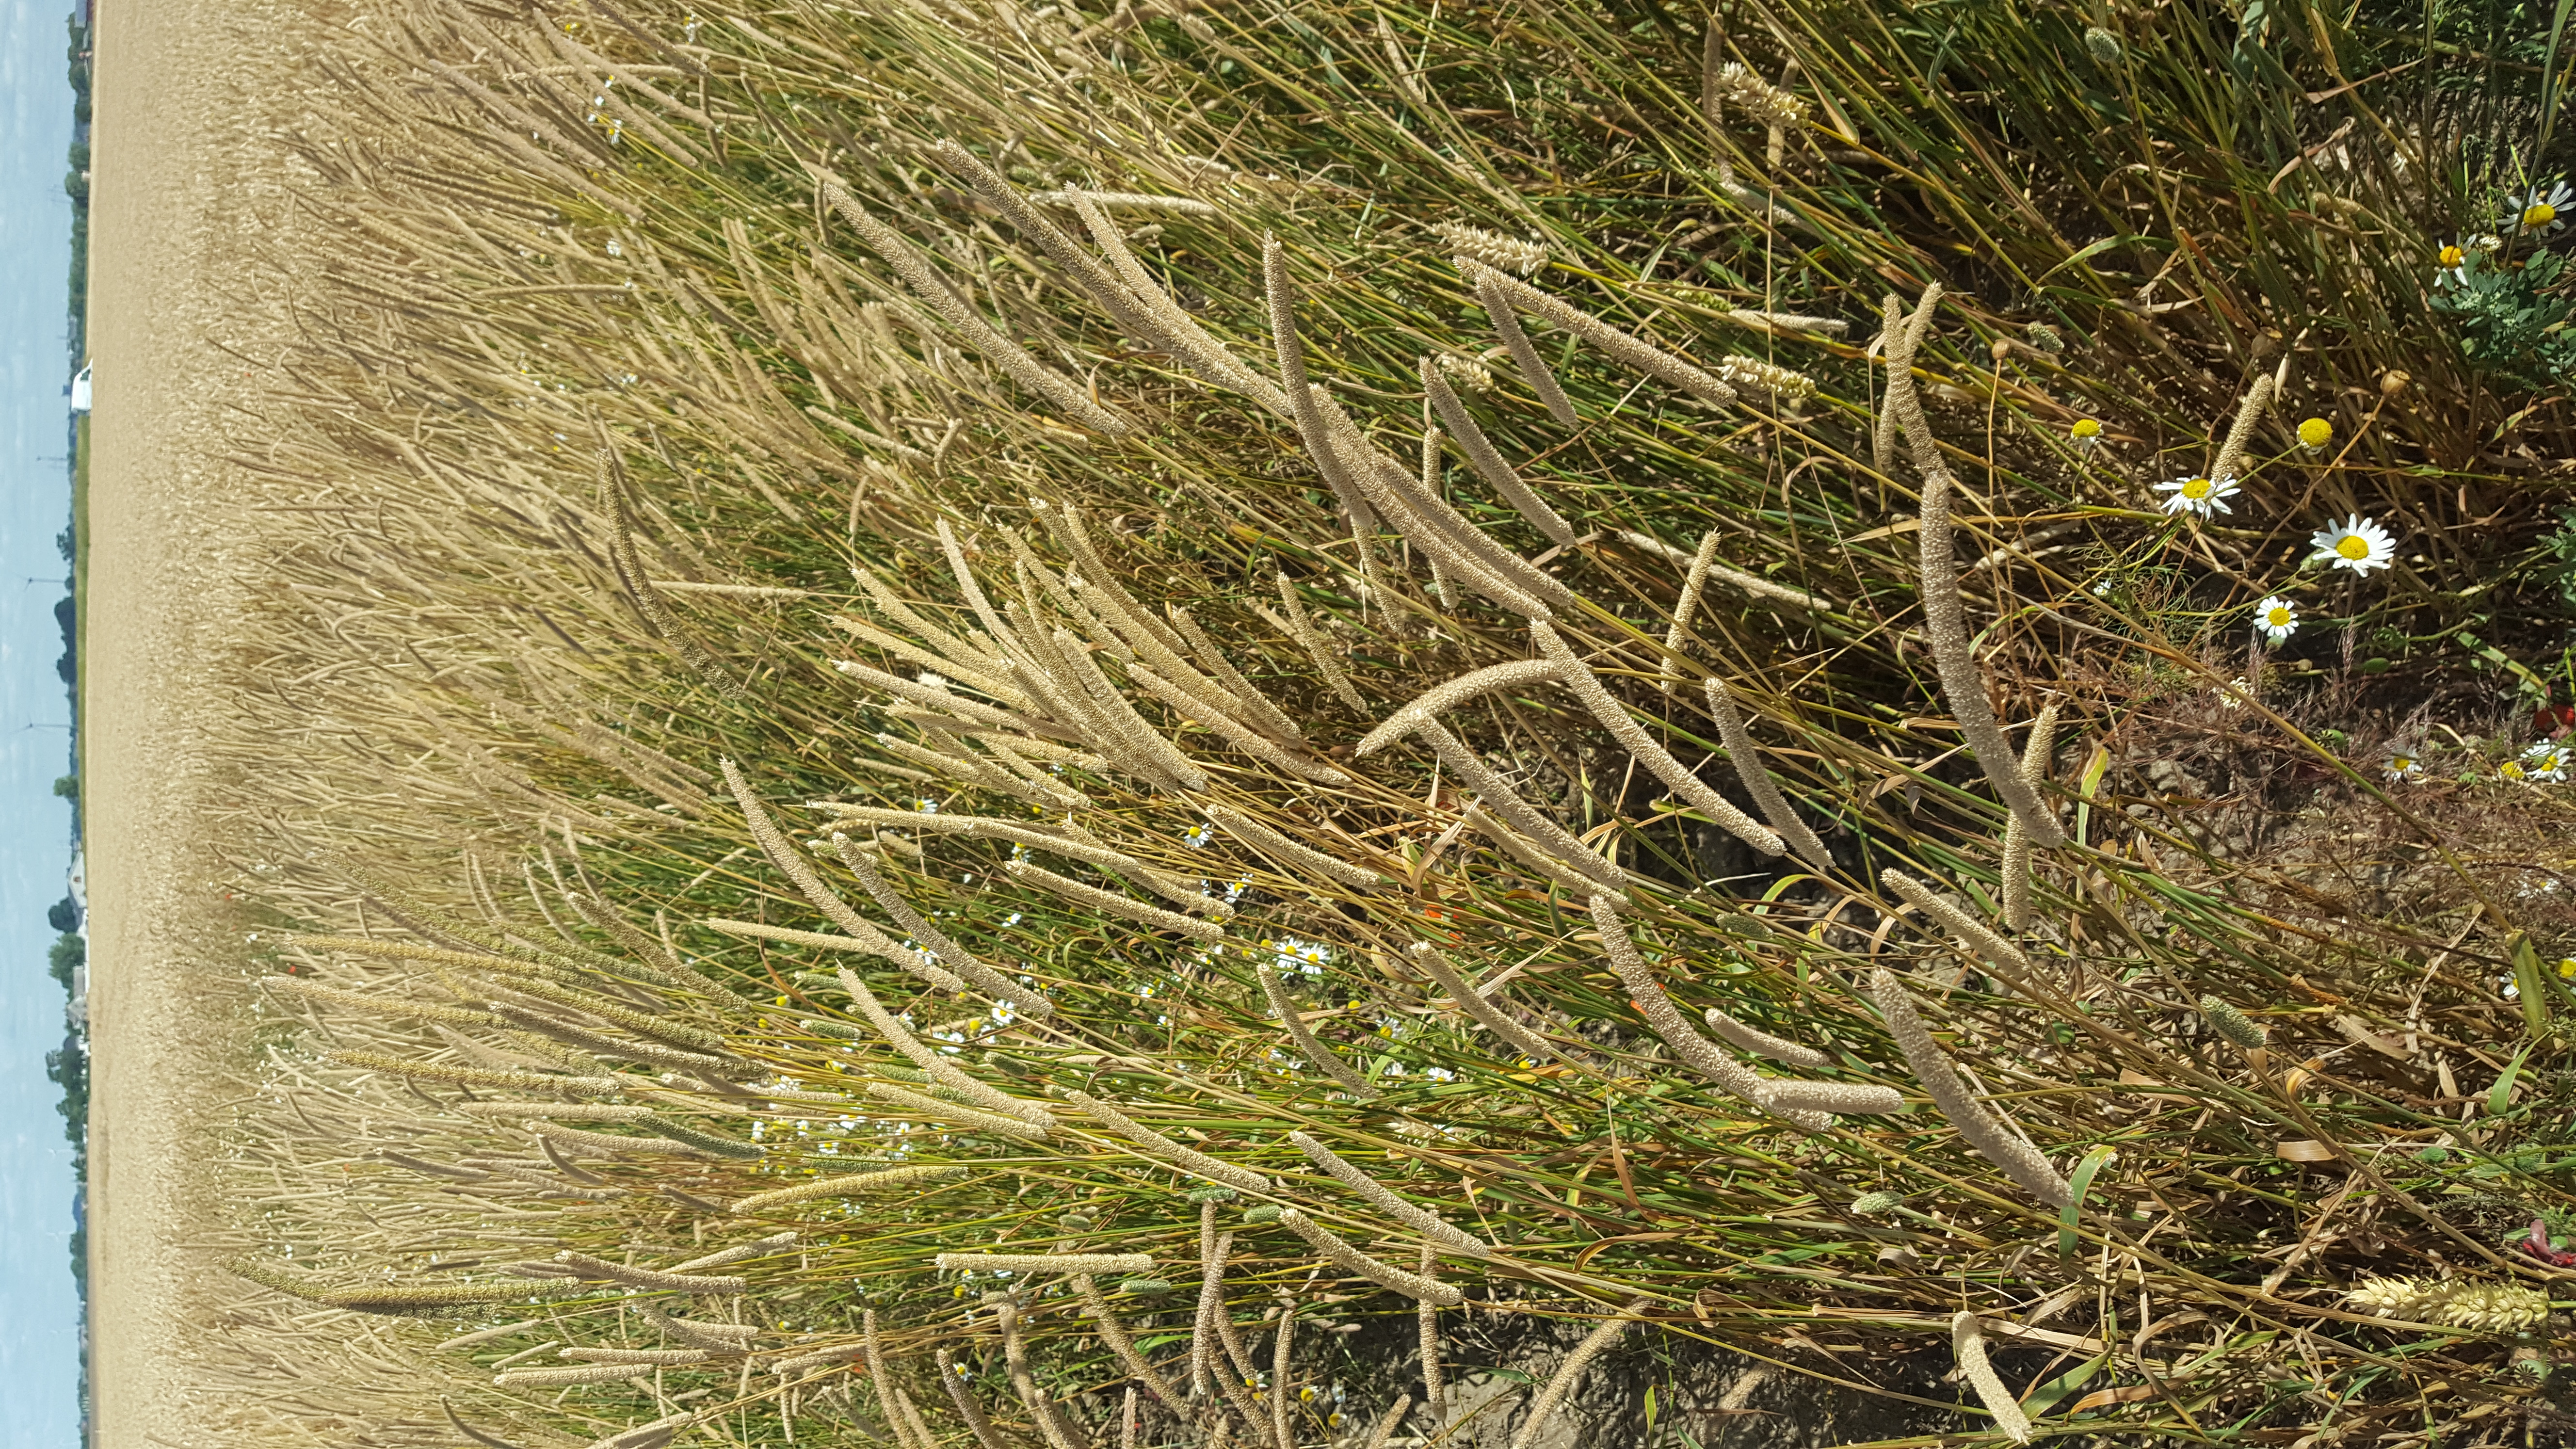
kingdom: Plantae
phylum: Tracheophyta
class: Liliopsida
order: Poales
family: Poaceae
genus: Phleum
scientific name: Phleum pratense
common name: Timothy grass
